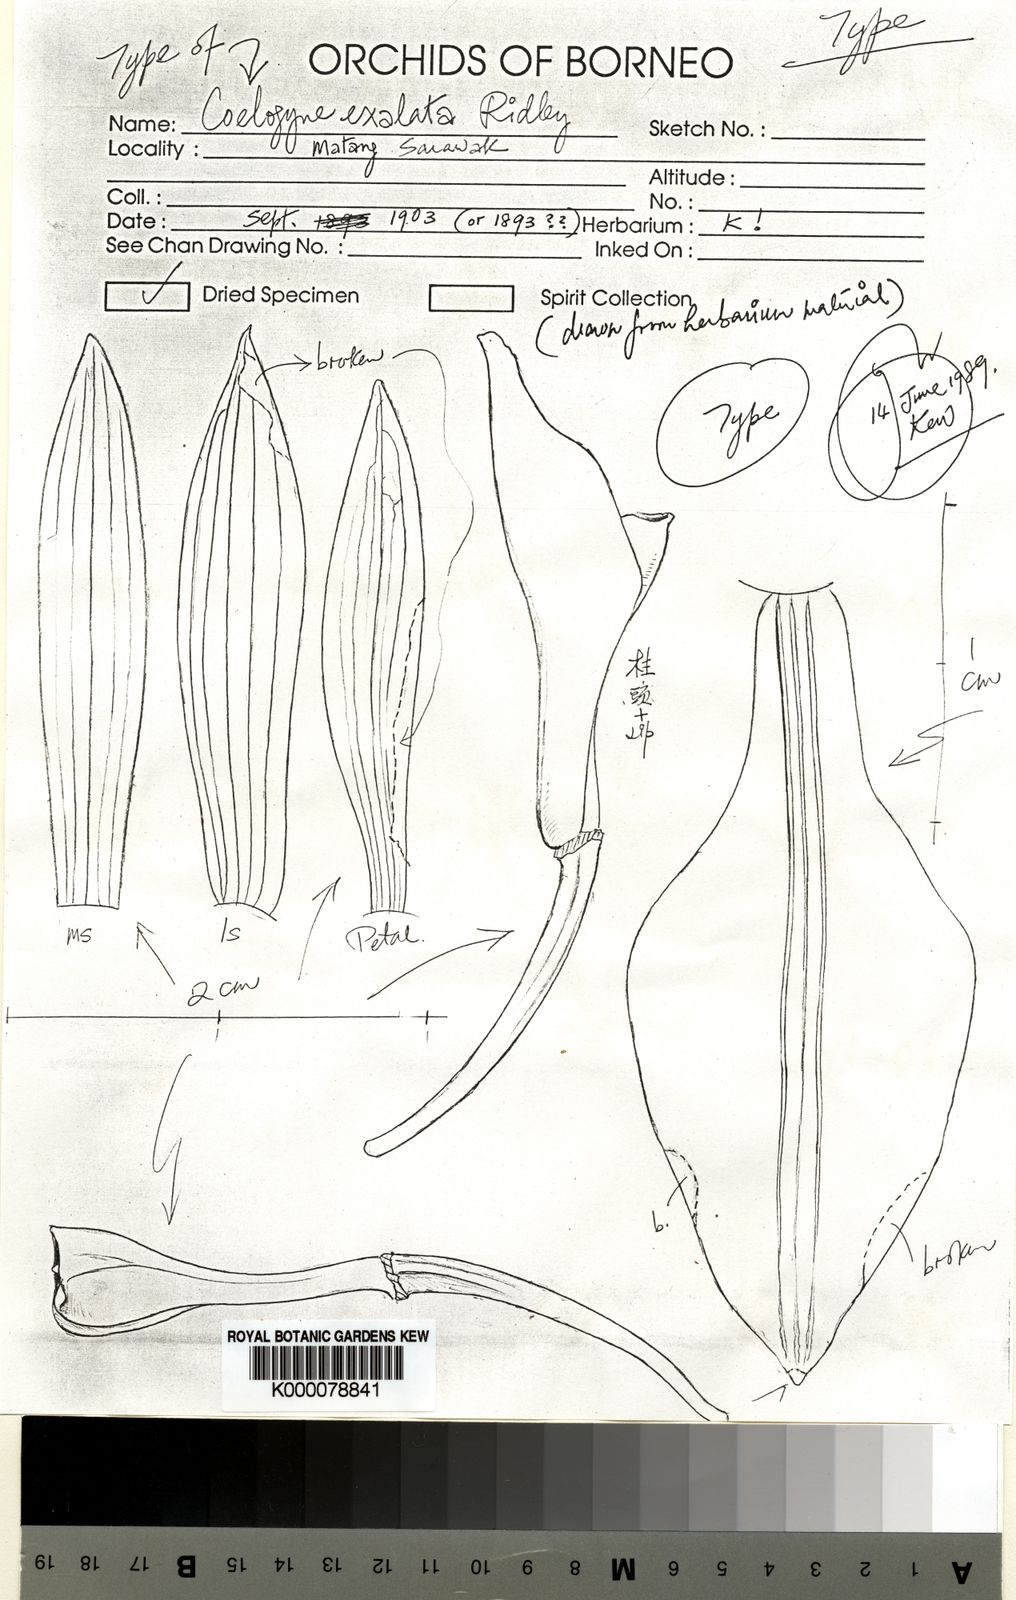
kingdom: Plantae
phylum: Tracheophyta
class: Liliopsida
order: Asparagales
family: Orchidaceae
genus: Coelogyne
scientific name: Coelogyne exalata
